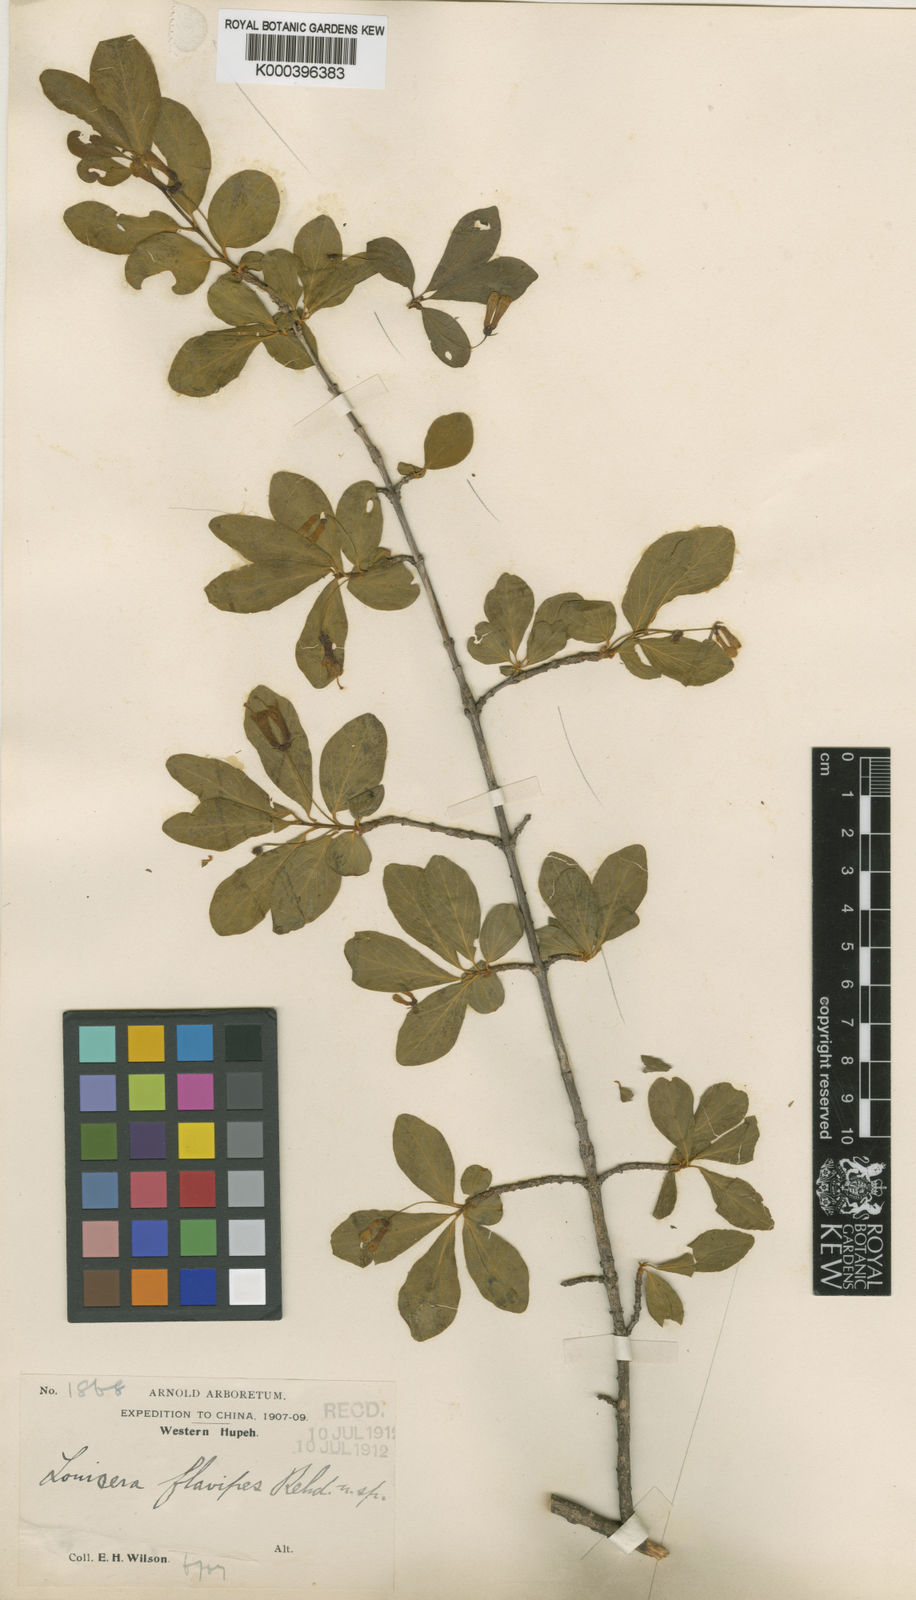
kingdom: Plantae
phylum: Tracheophyta
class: Magnoliopsida
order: Dipsacales
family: Caprifoliaceae
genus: Lonicera
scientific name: Lonicera tangutica
